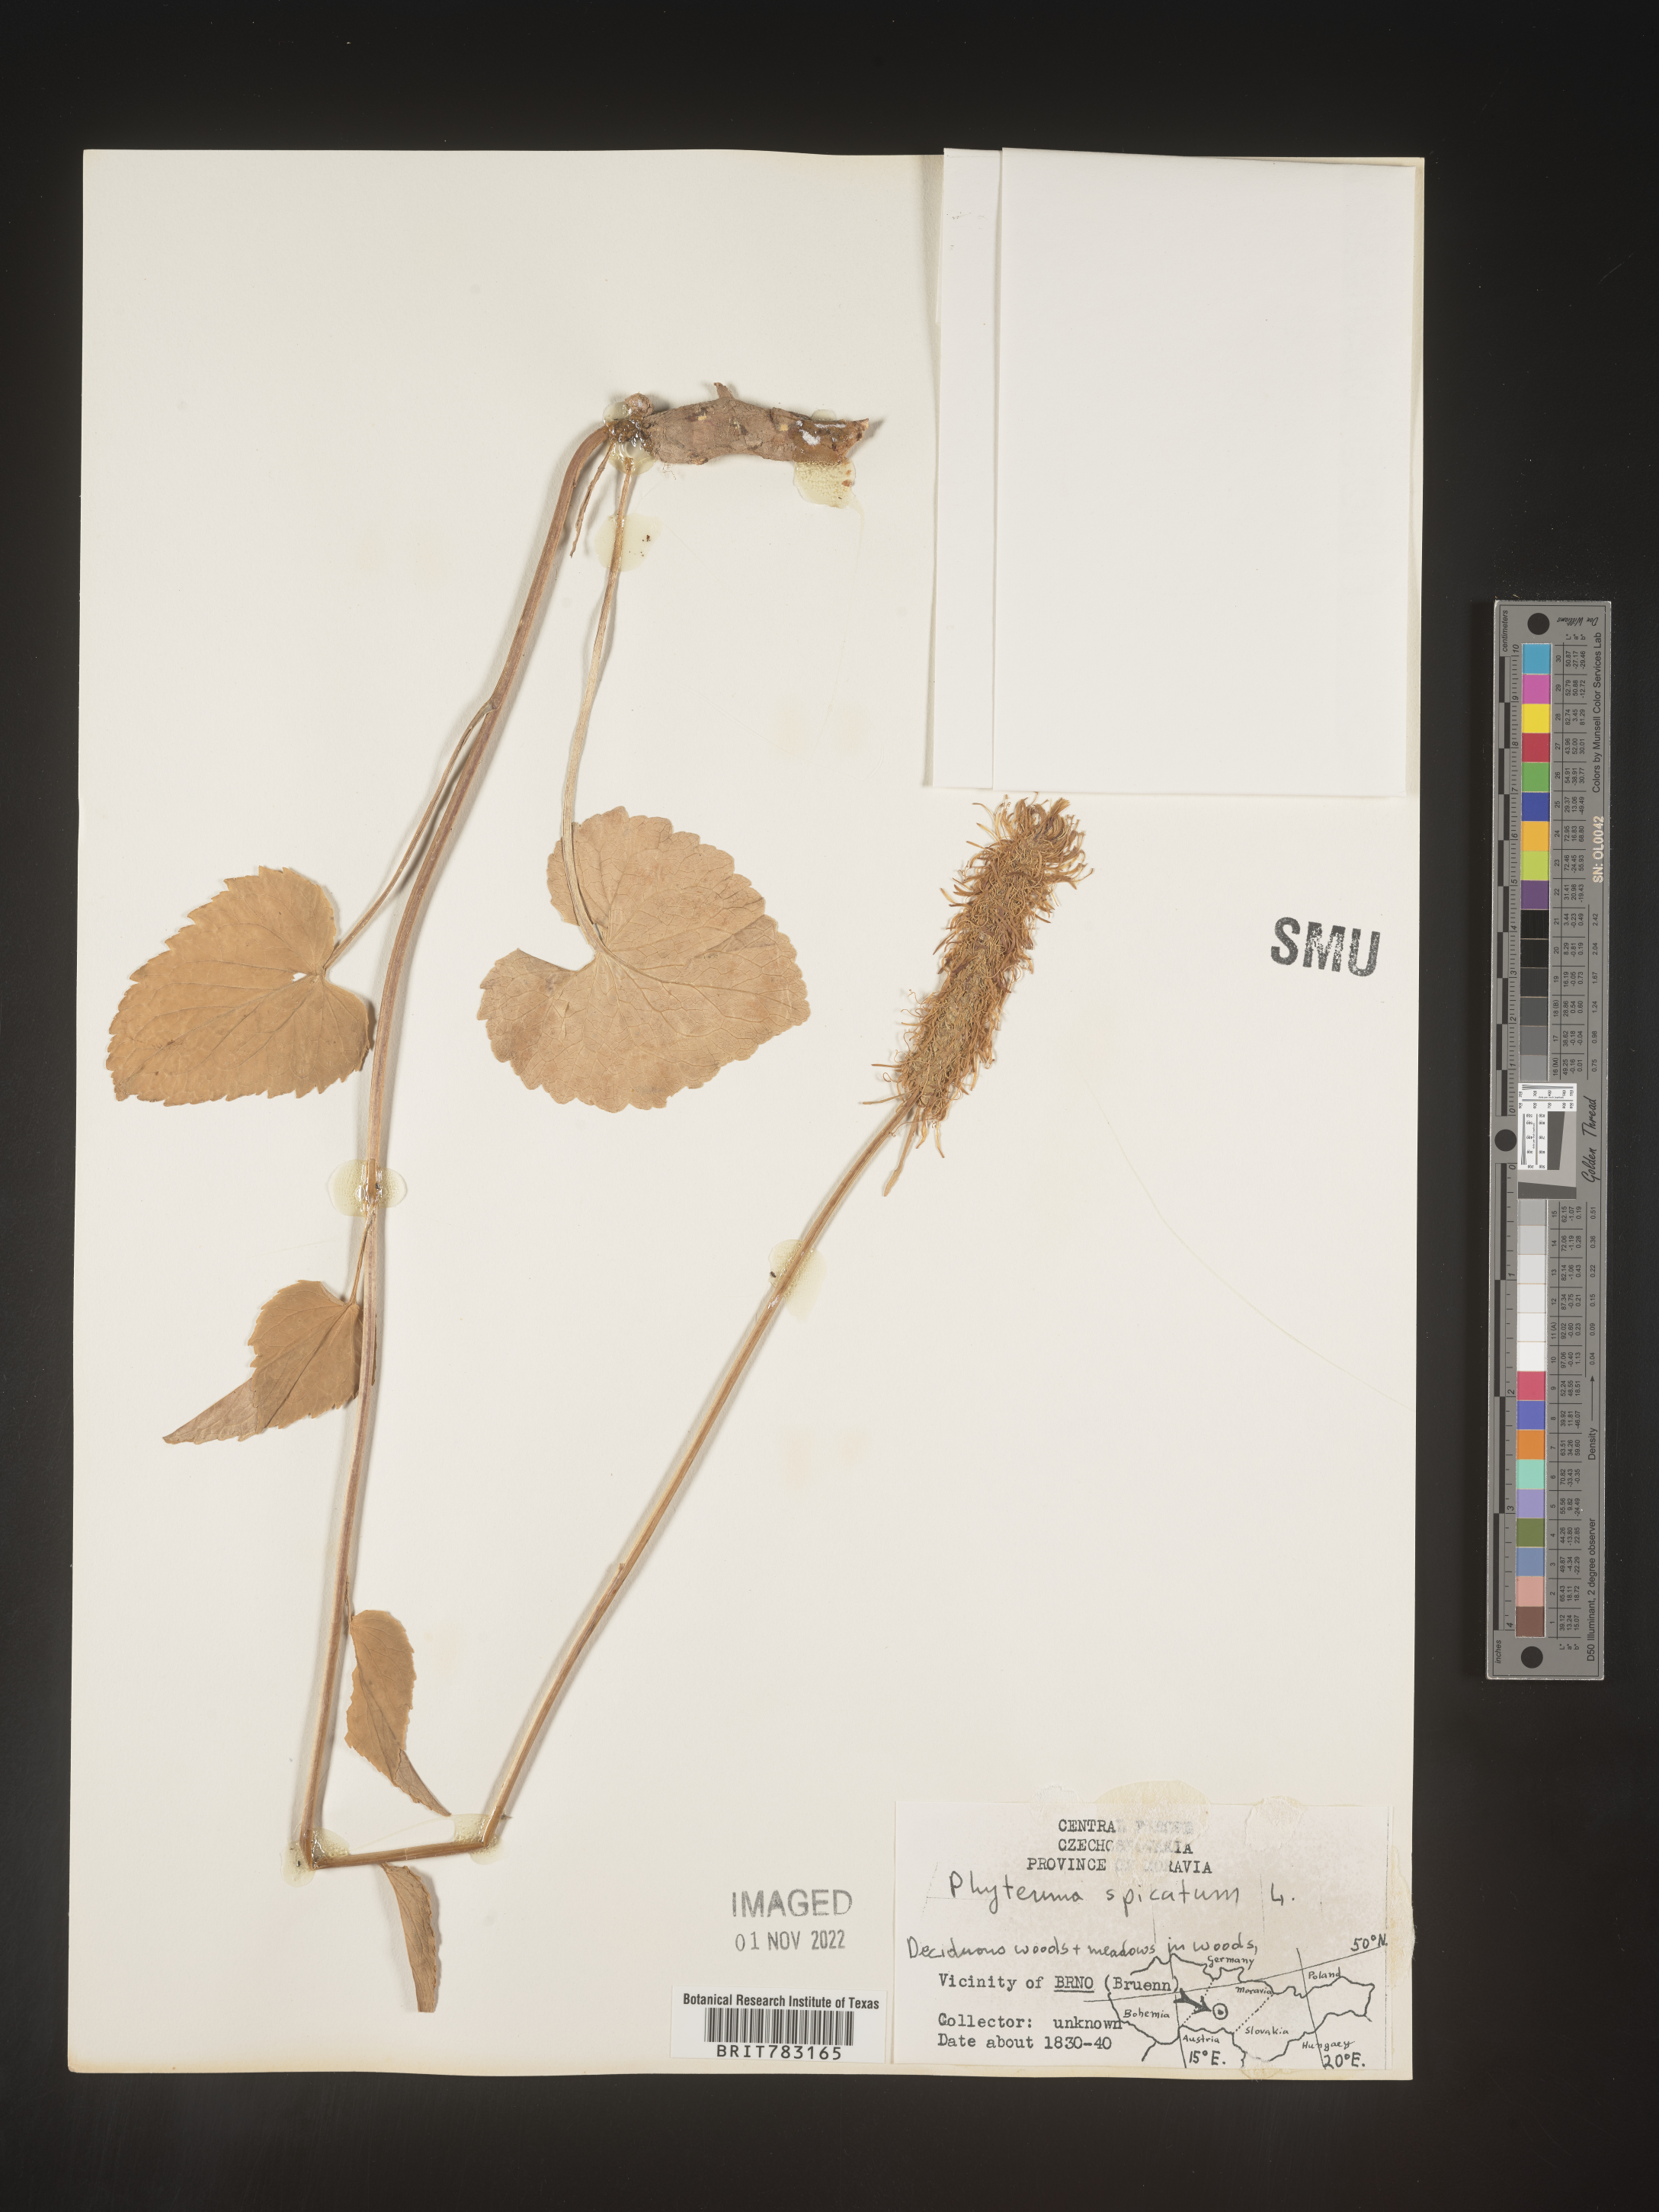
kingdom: Plantae
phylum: Tracheophyta
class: Magnoliopsida
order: Asterales
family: Campanulaceae
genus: Phyteuma
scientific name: Phyteuma
